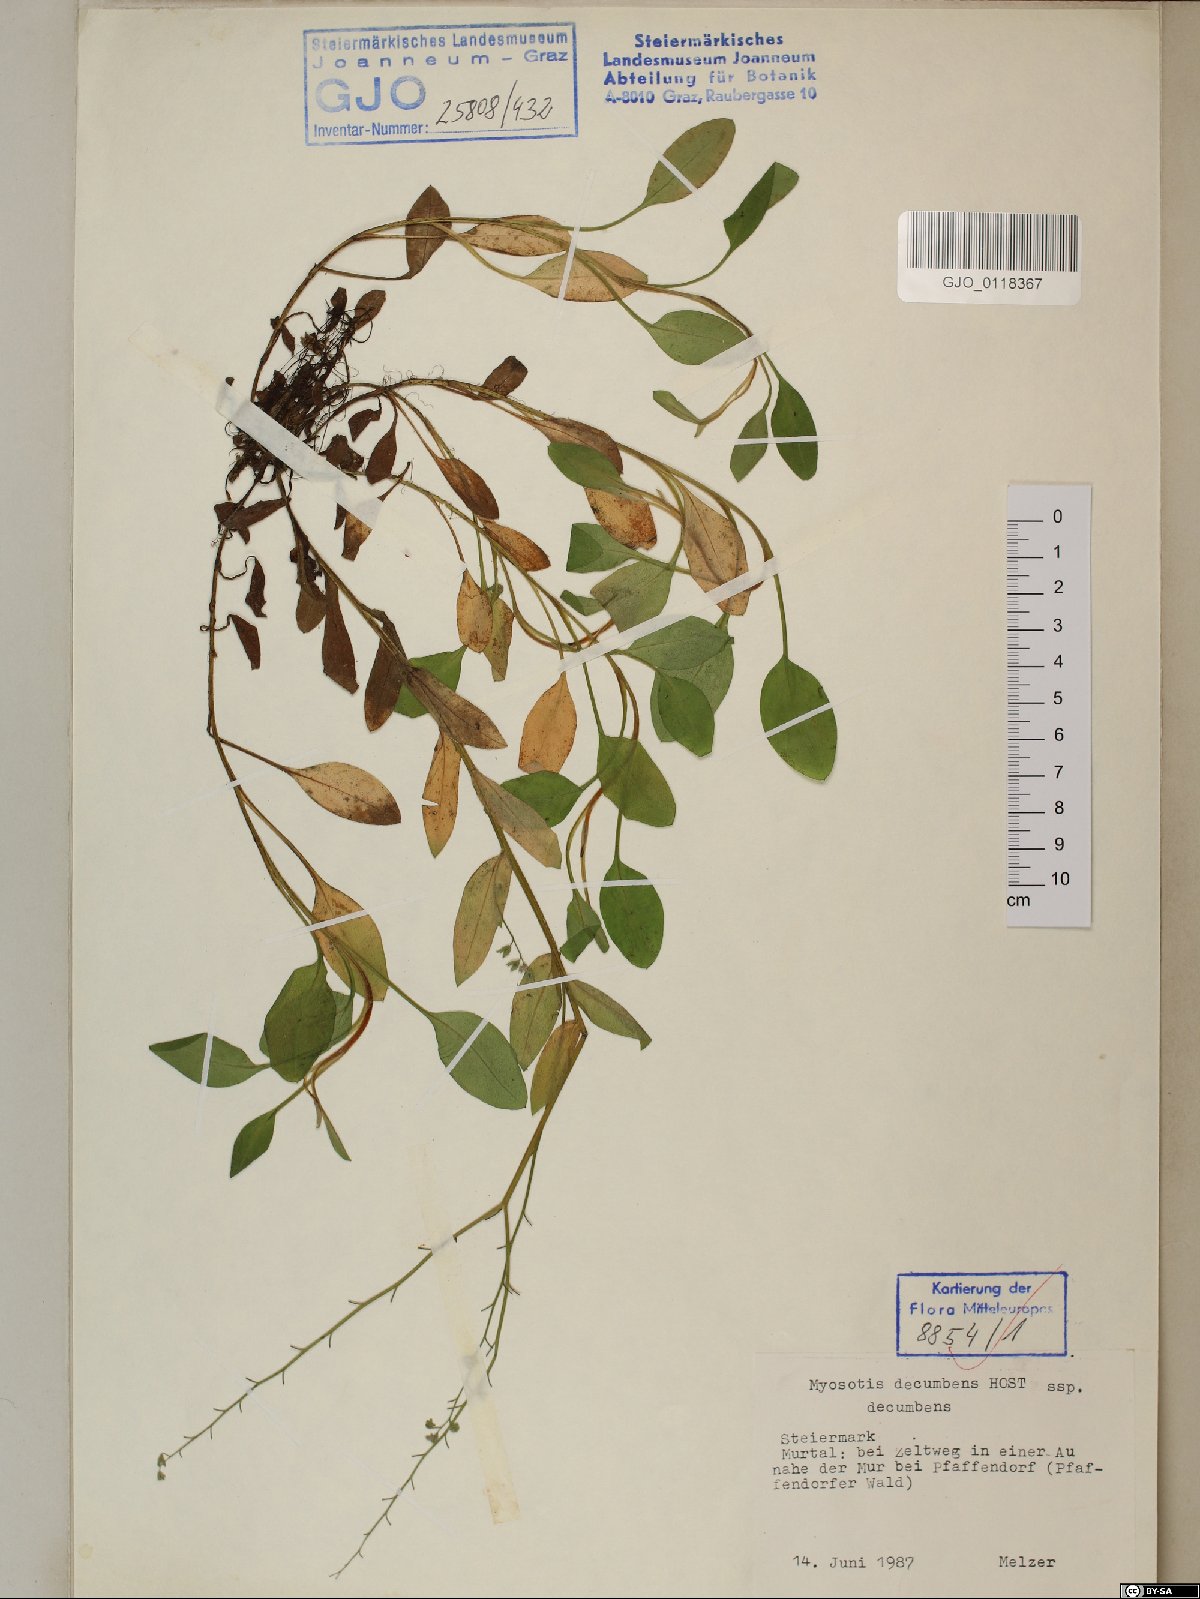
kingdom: Plantae
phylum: Tracheophyta
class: Magnoliopsida
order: Boraginales
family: Boraginaceae
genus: Myosotis
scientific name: Myosotis decumbens
